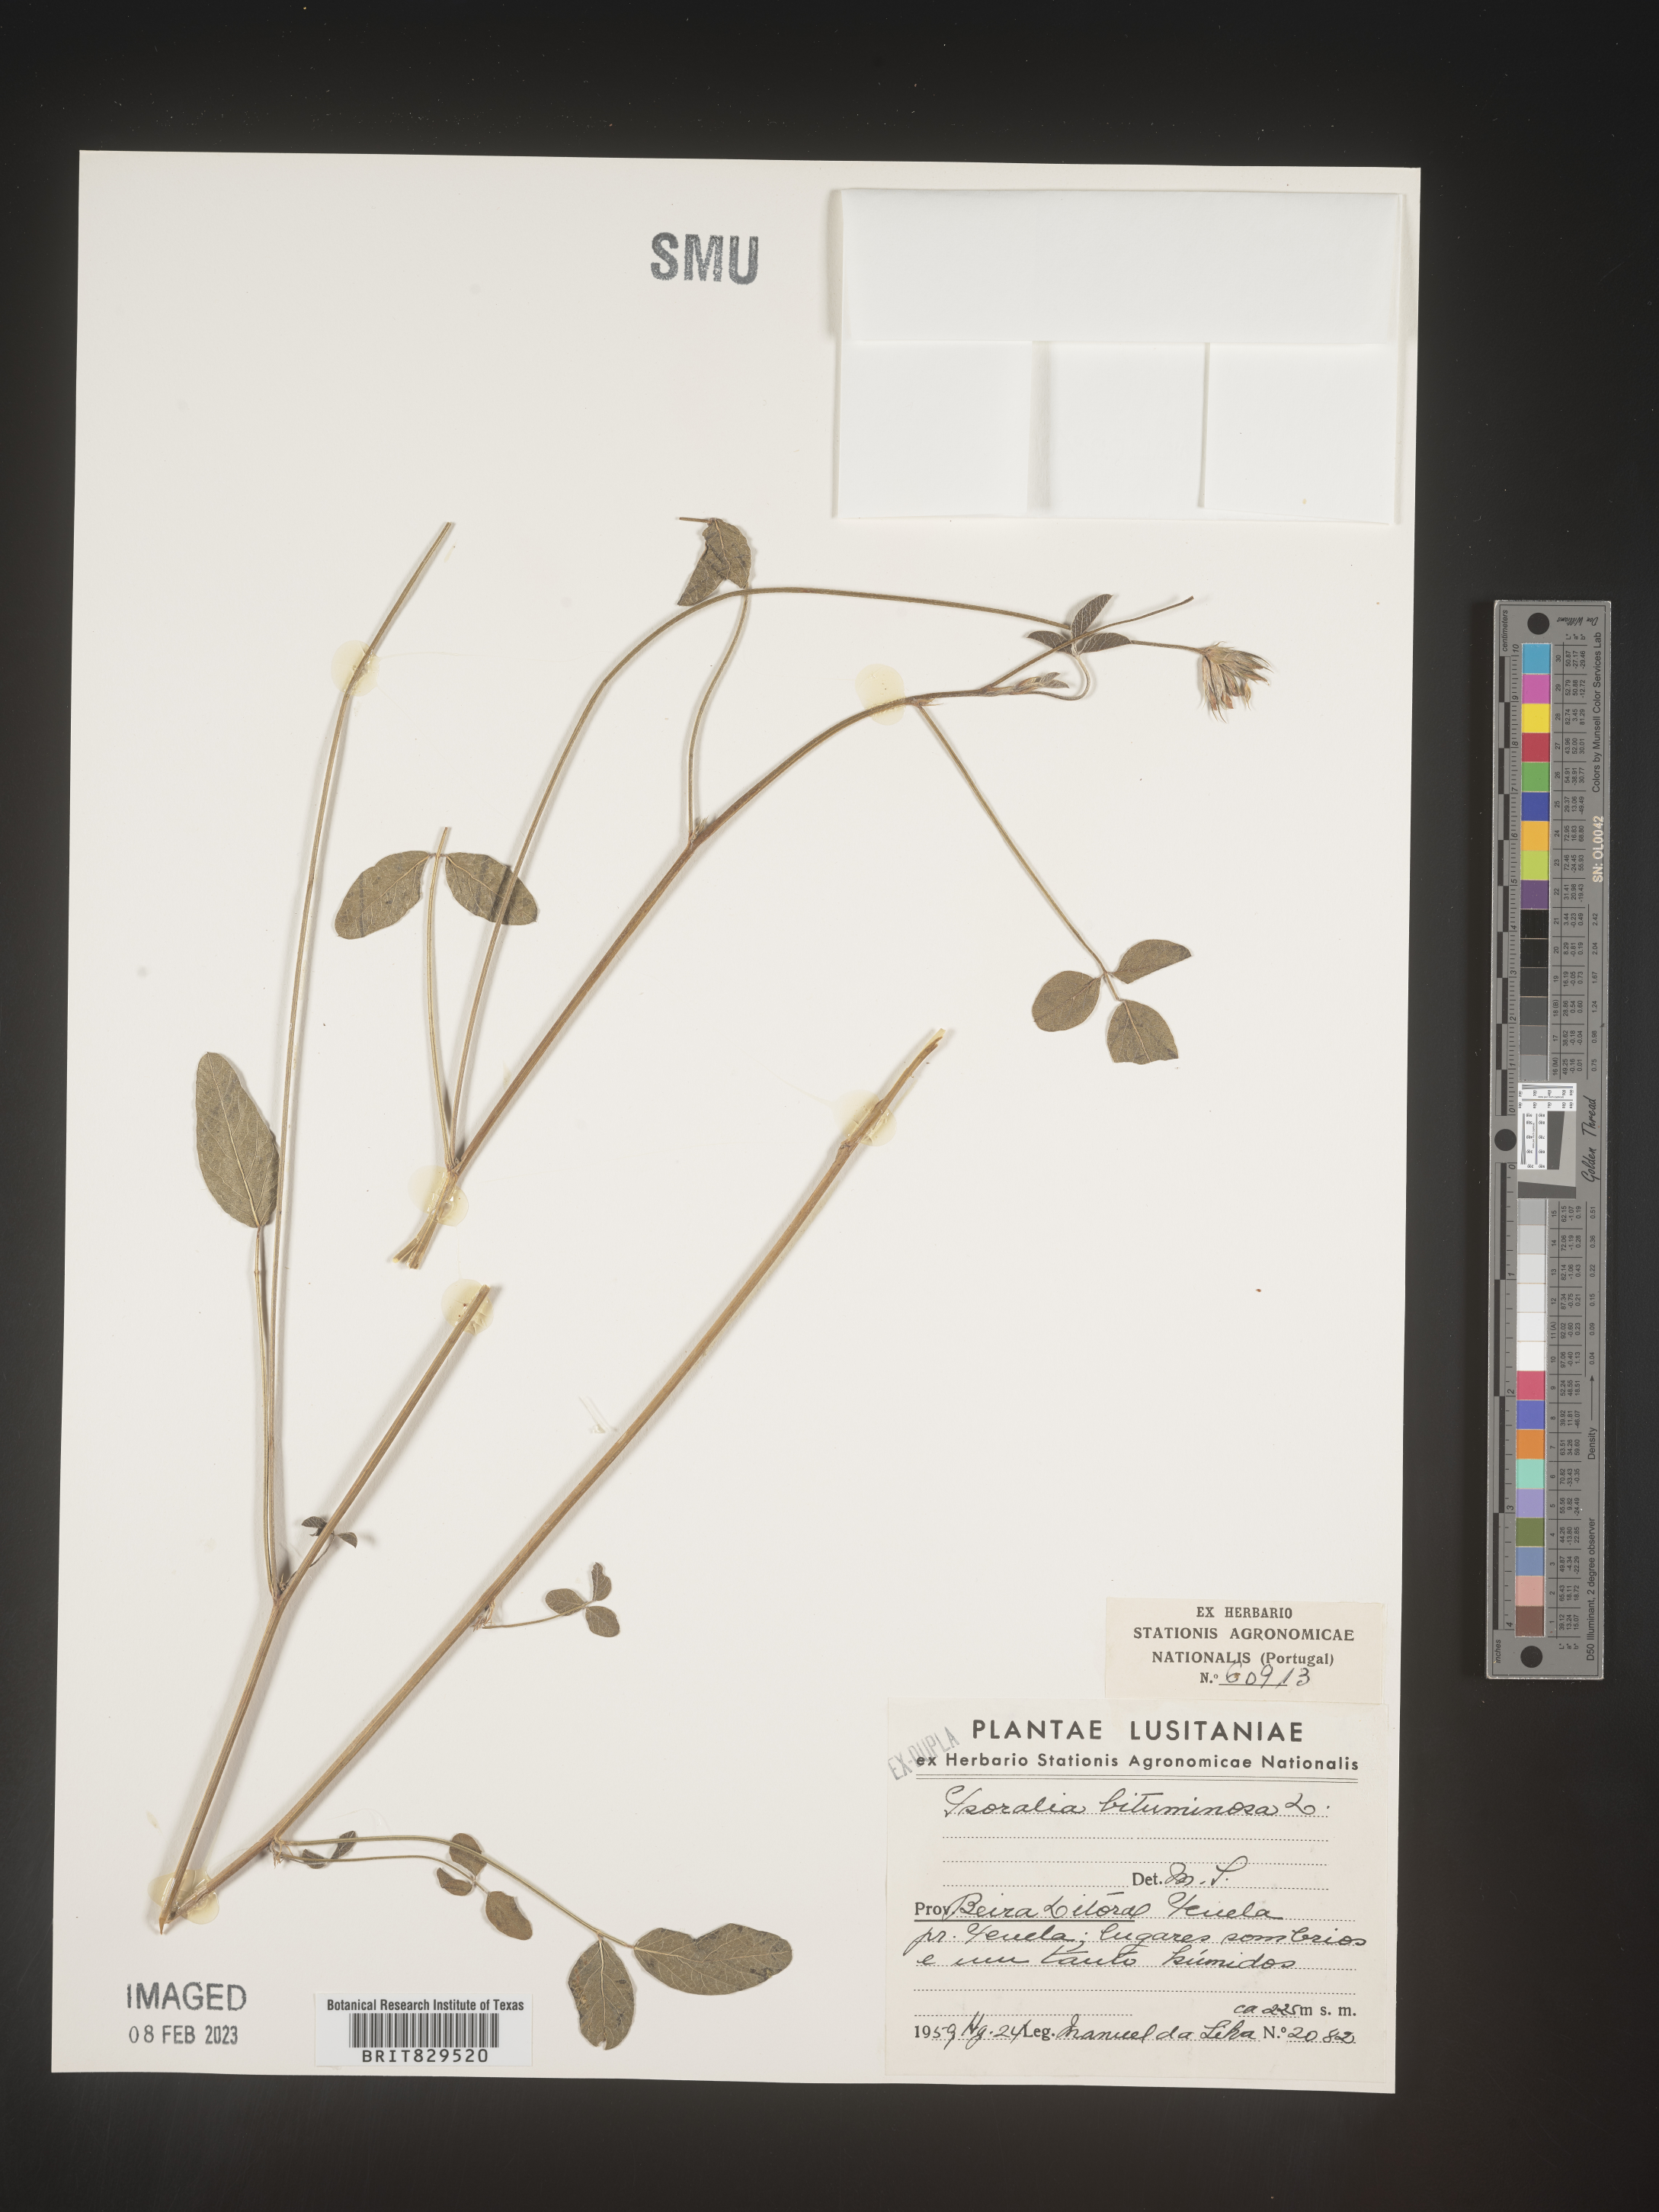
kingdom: Plantae
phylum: Tracheophyta
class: Magnoliopsida
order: Fabales
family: Fabaceae
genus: Psoralea
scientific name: Psoralea
